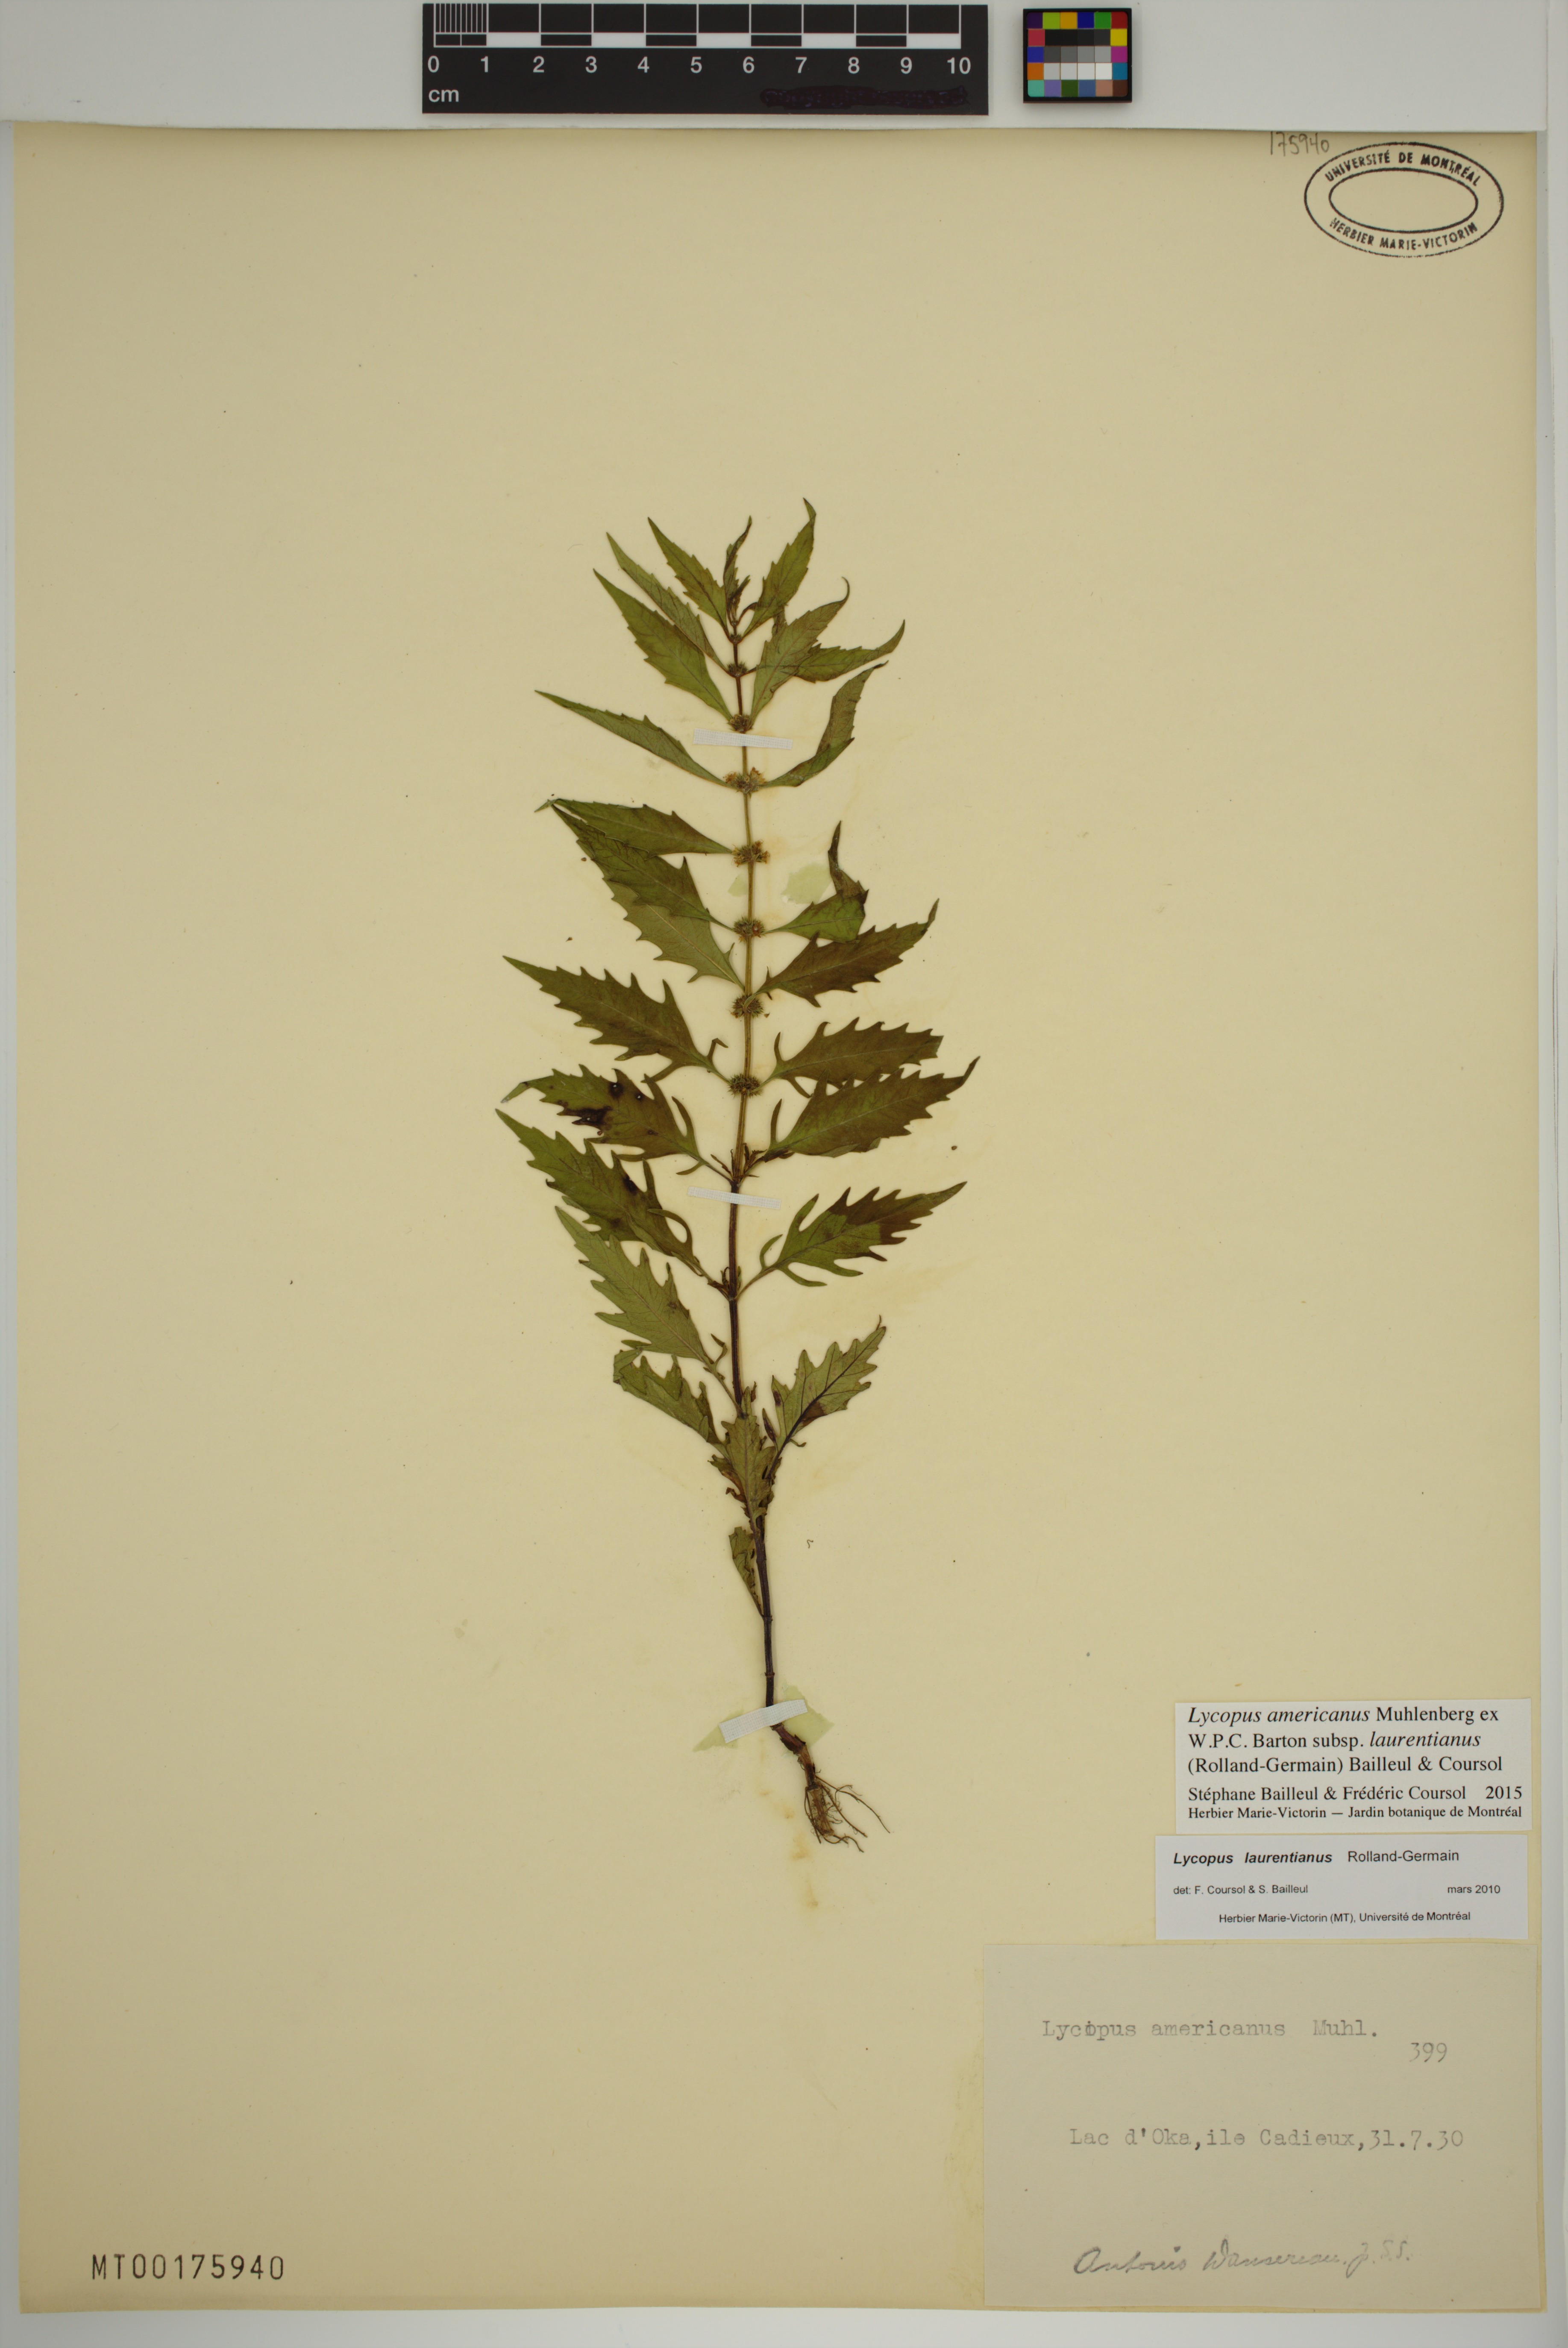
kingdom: Plantae
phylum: Tracheophyta
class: Magnoliopsida
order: Lamiales
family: Lamiaceae
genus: Lycopus
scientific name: Lycopus americanus
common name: American bugleweed
